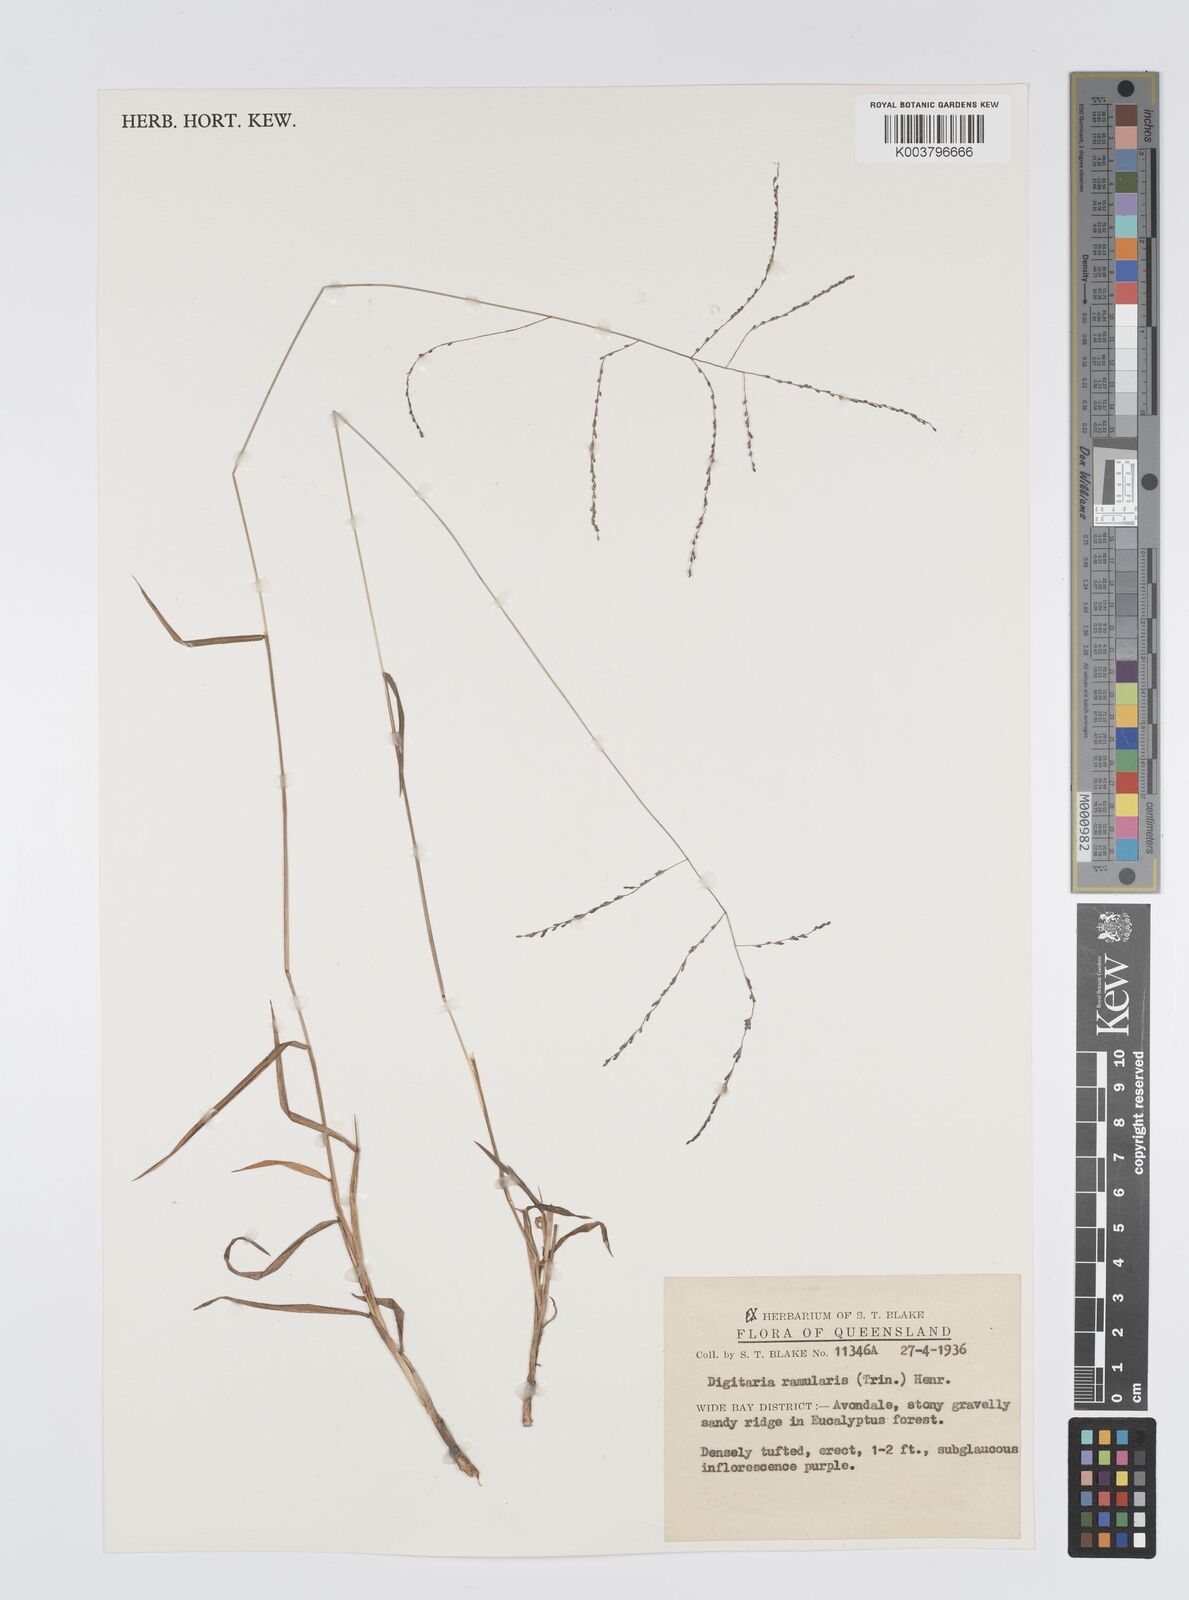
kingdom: Plantae
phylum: Tracheophyta
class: Liliopsida
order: Poales
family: Poaceae
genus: Digitaria
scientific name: Digitaria ramularis
